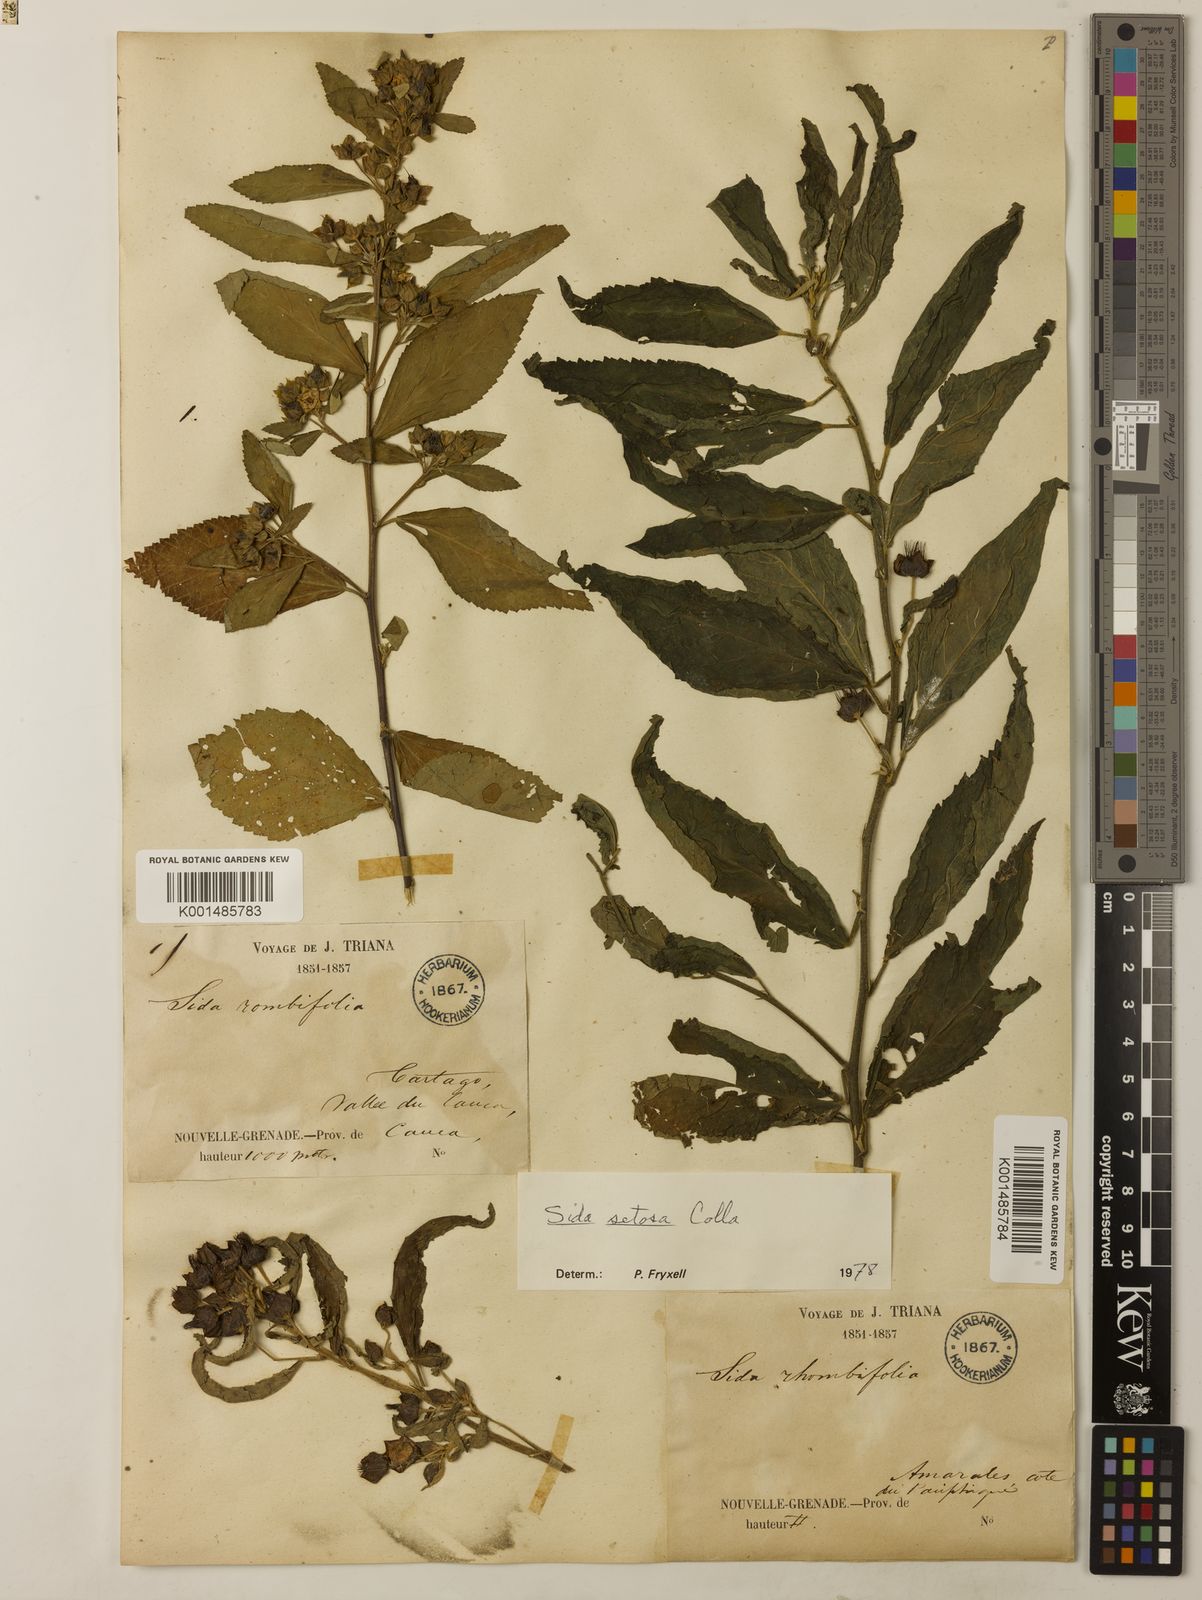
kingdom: Plantae
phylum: Tracheophyta
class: Magnoliopsida
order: Malvales
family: Malvaceae
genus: Sida
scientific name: Sida setosa
